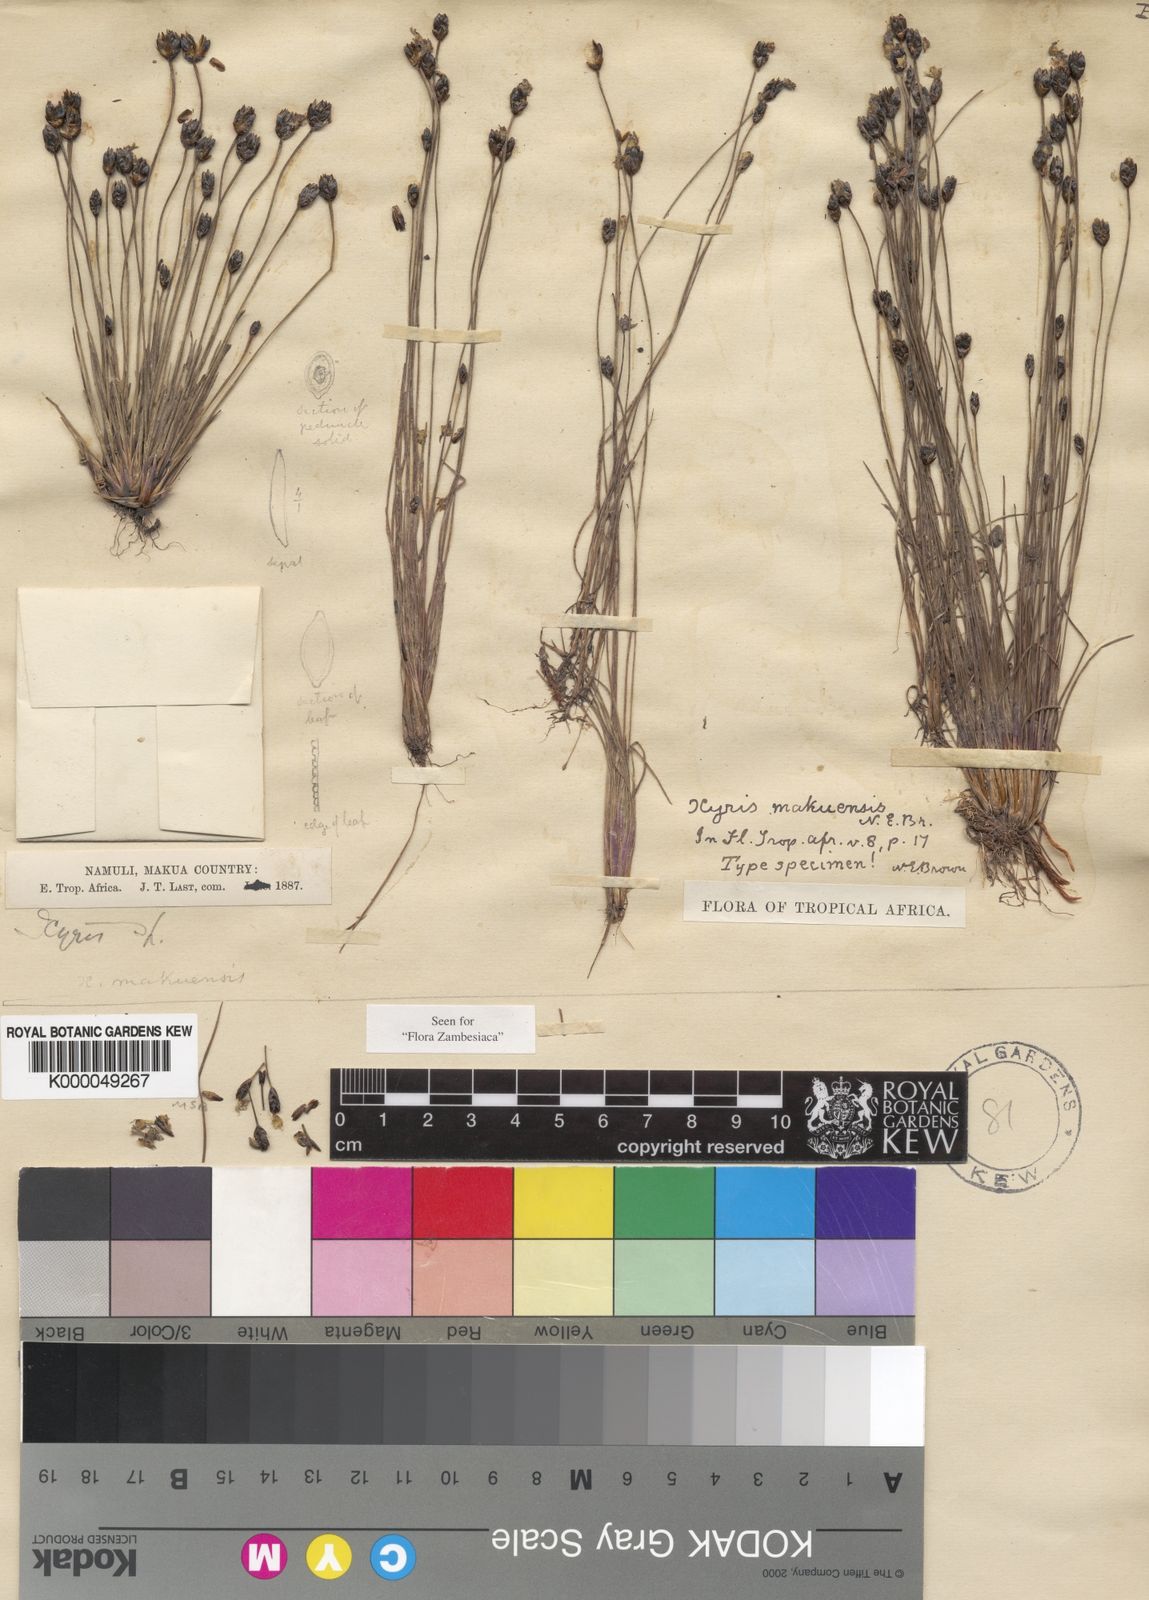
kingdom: Plantae
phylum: Tracheophyta
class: Liliopsida
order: Poales
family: Xyridaceae
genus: Xyris
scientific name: Xyris makuensis
